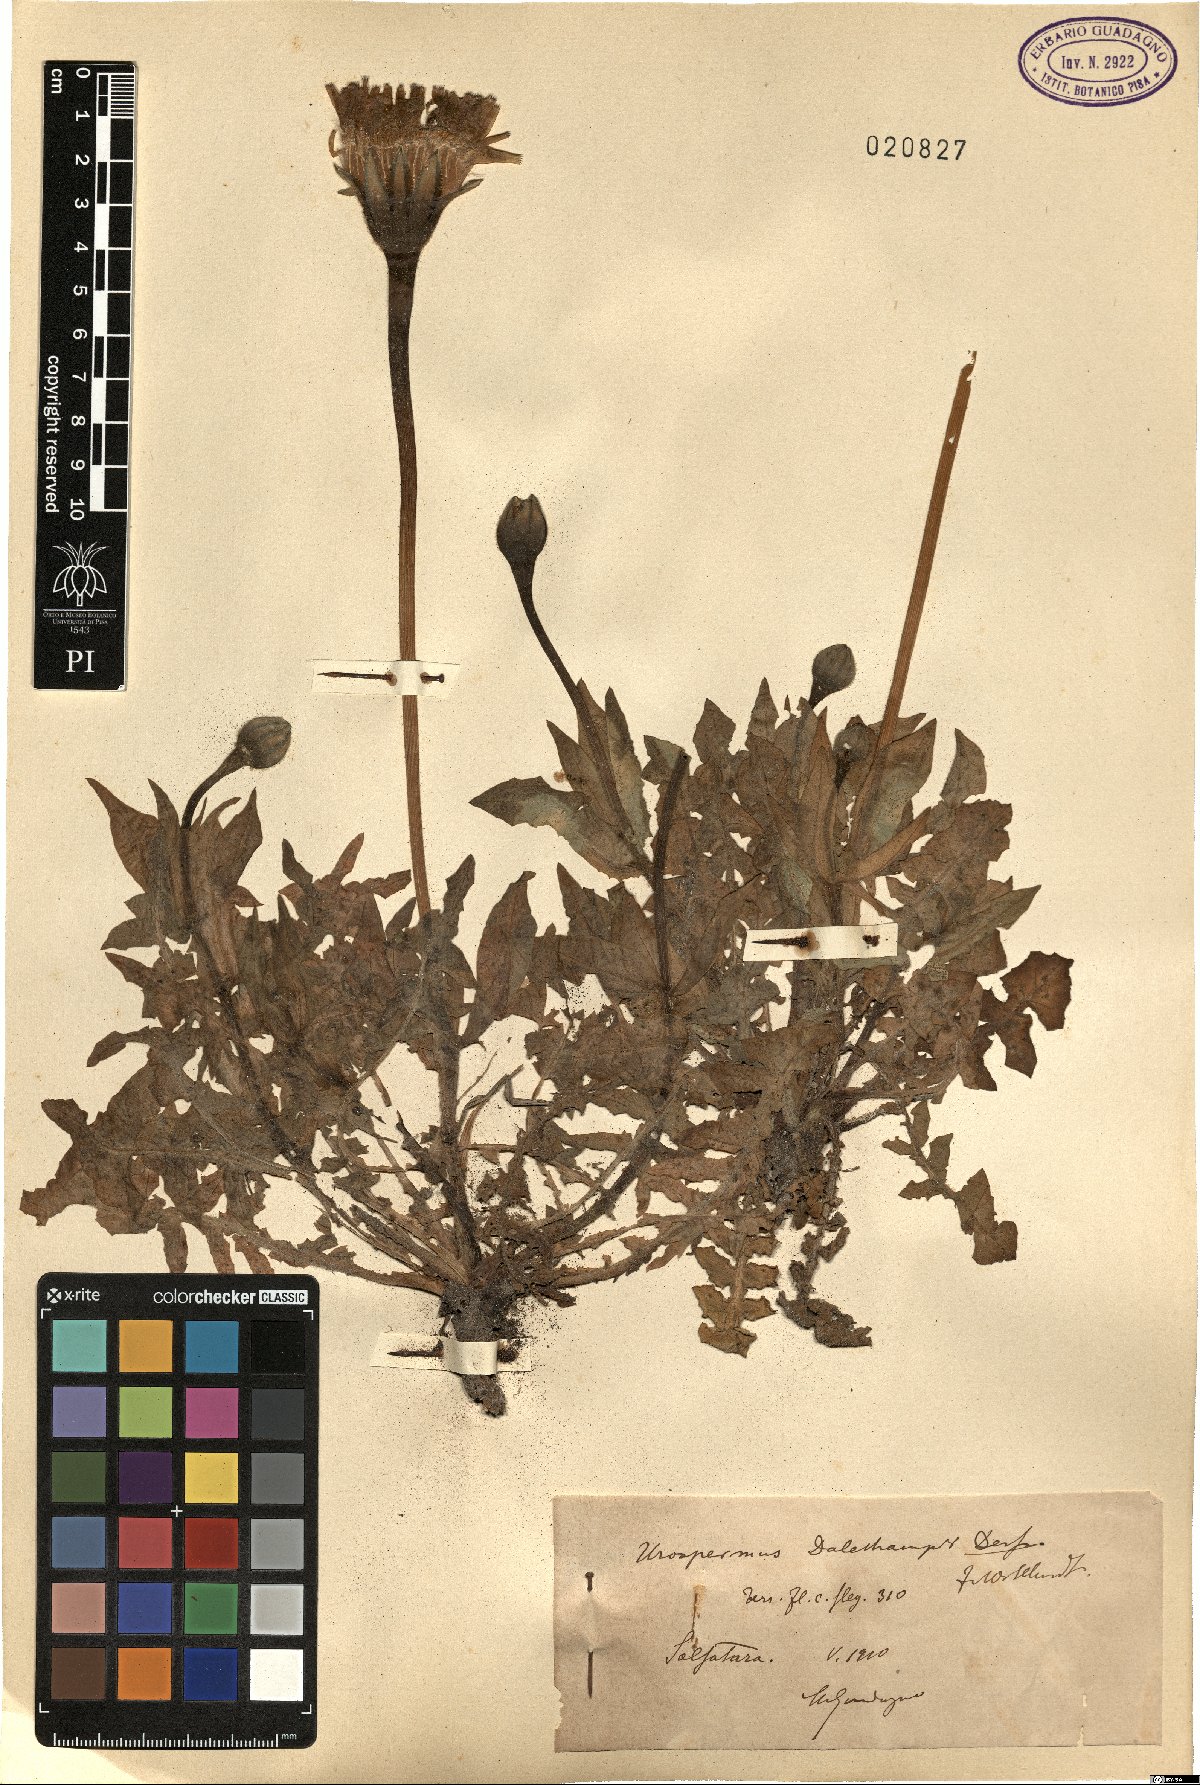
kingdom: Plantae
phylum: Tracheophyta
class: Magnoliopsida
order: Asterales
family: Asteraceae
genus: Urospermum
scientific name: Urospermum dalechampii
